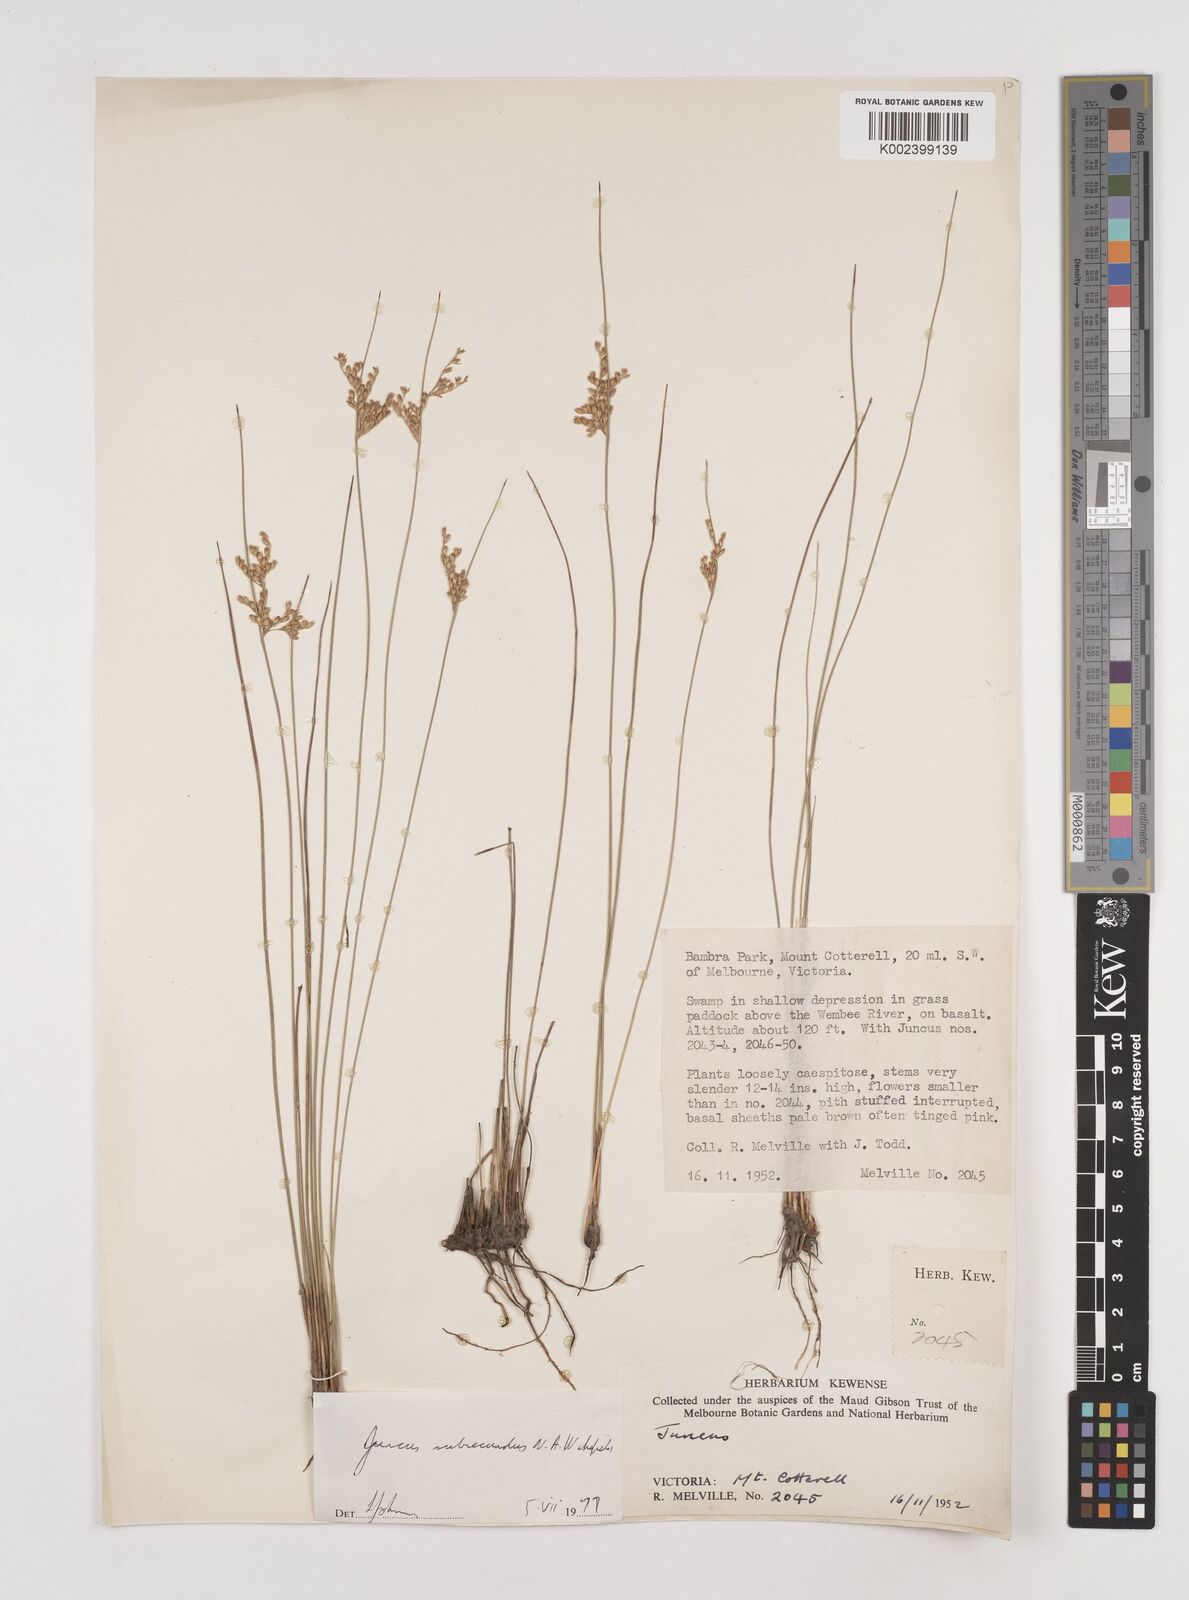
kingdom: Plantae
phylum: Tracheophyta
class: Liliopsida
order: Poales
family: Juncaceae
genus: Juncus
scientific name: Juncus subsecundus
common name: Fingered rush
